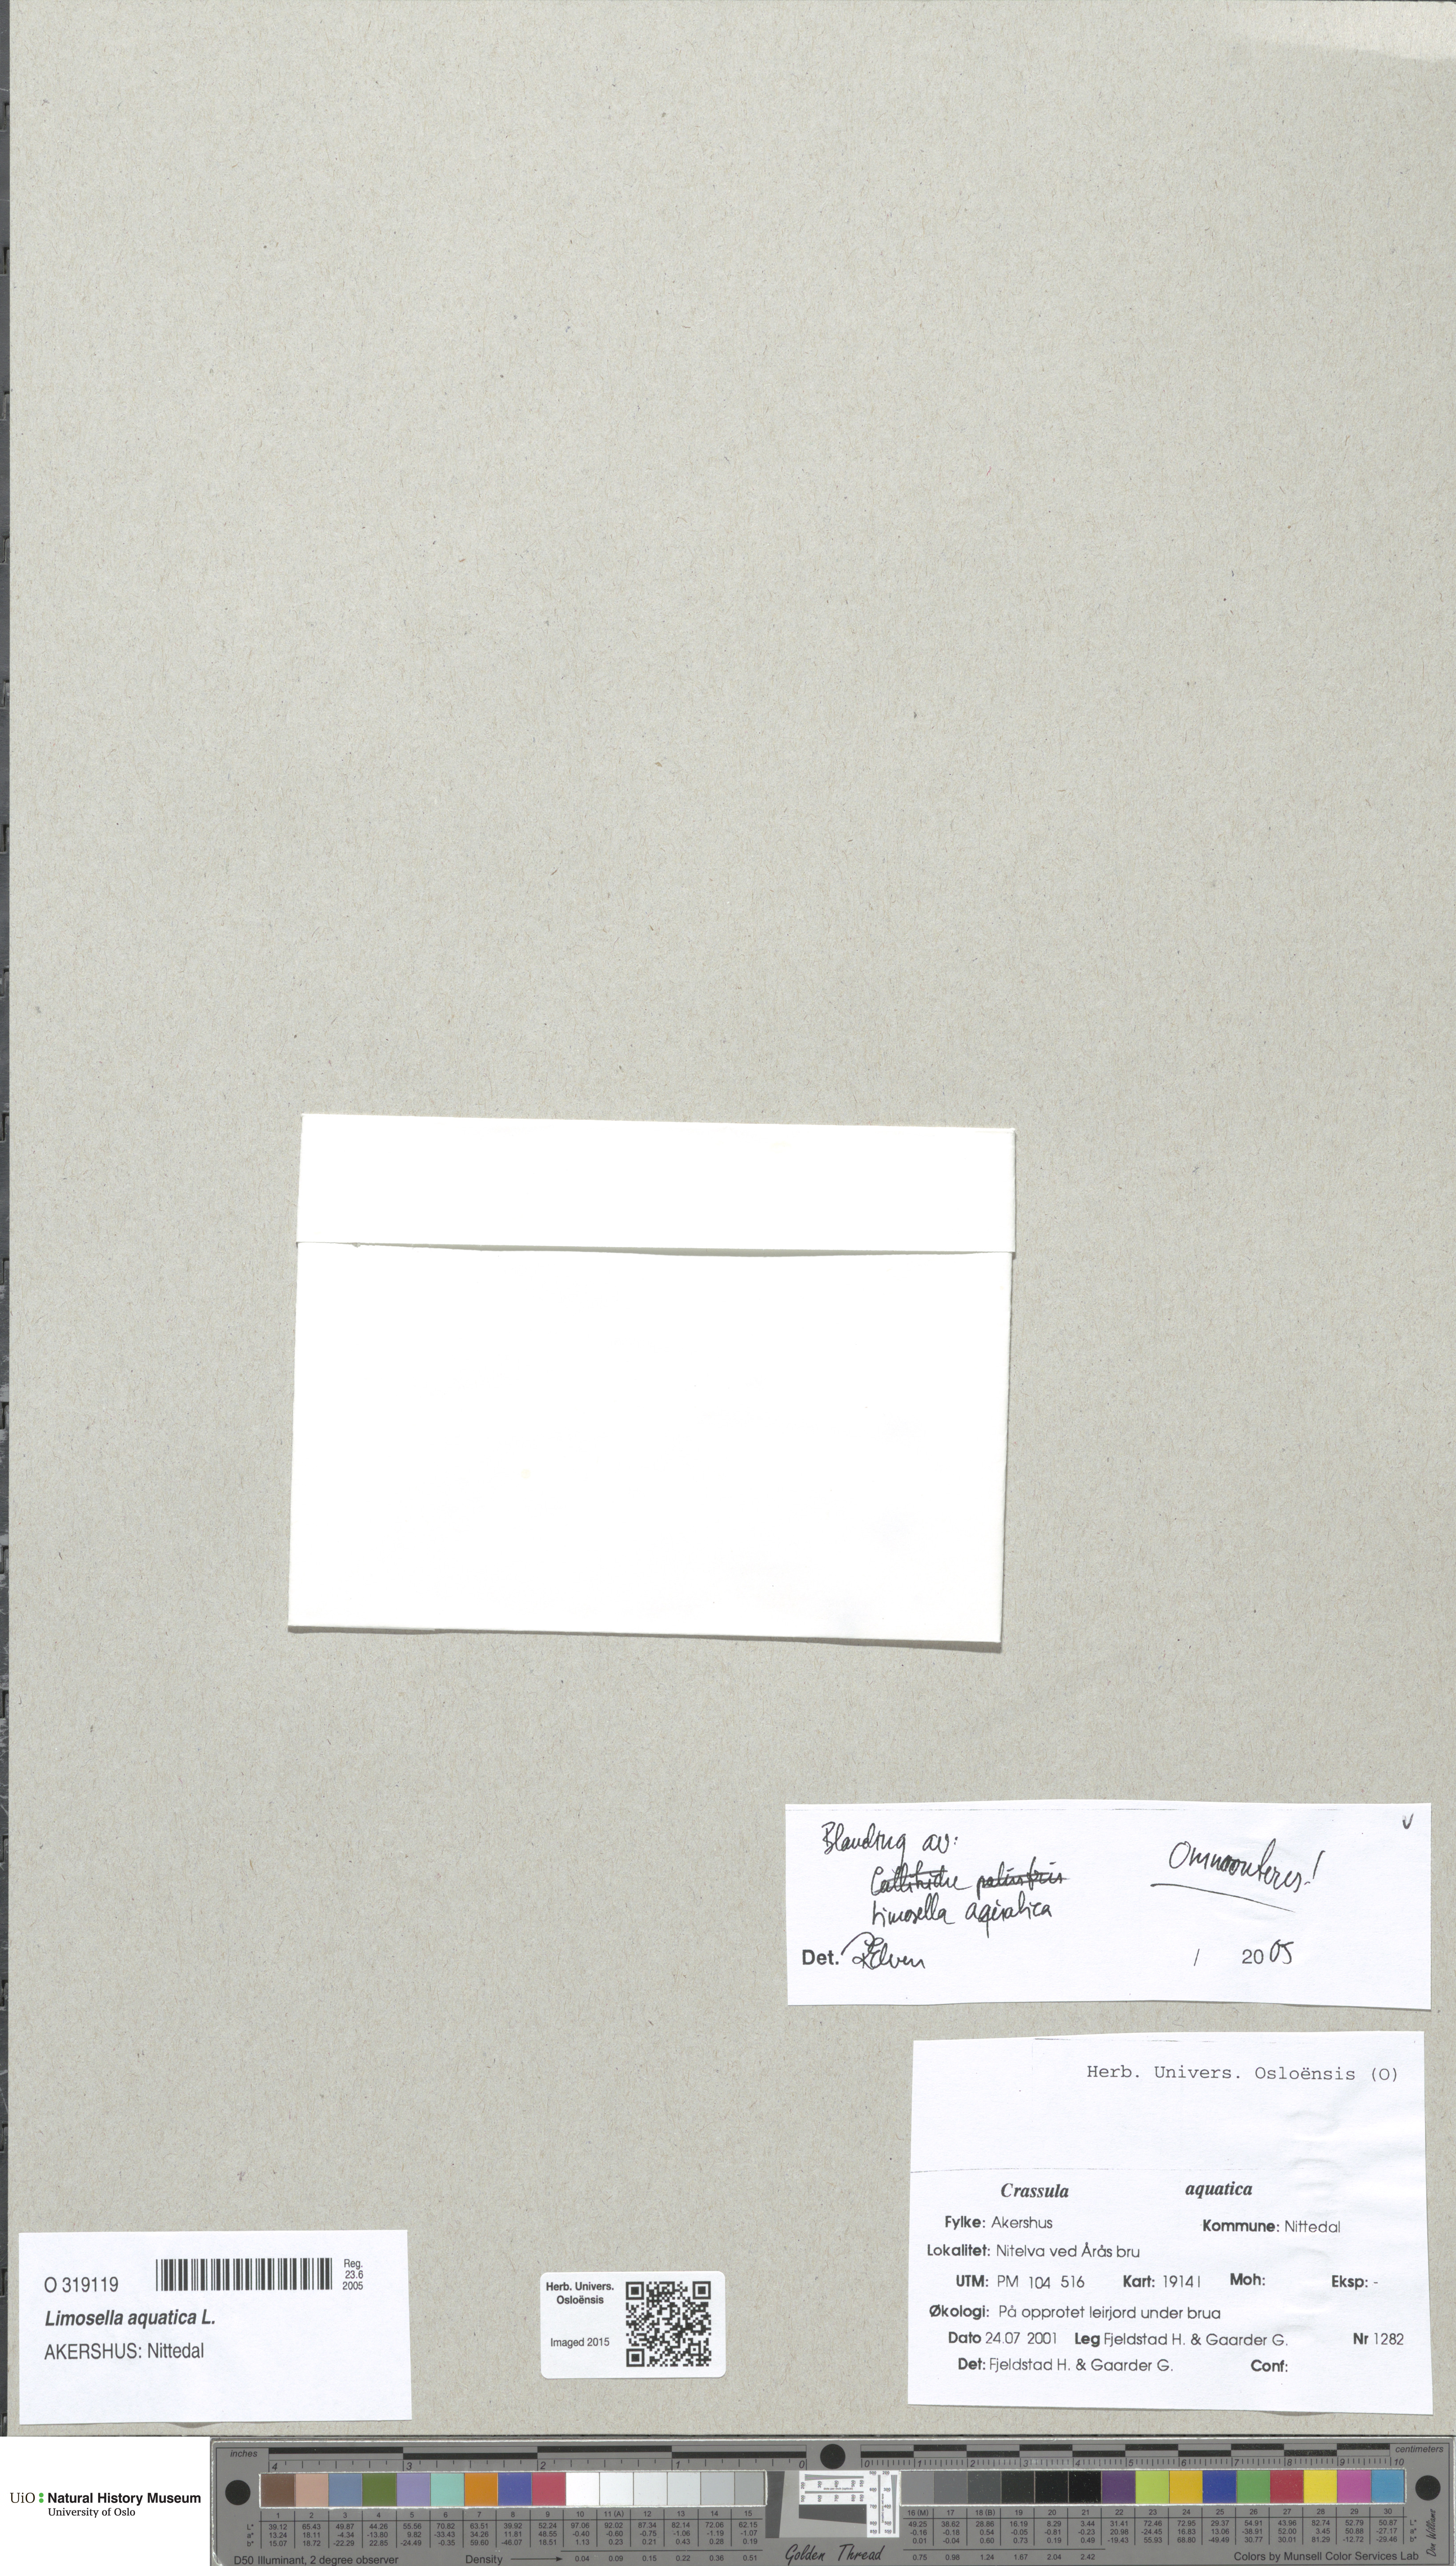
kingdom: Plantae
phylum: Tracheophyta
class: Magnoliopsida
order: Lamiales
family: Scrophulariaceae
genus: Limosella
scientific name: Limosella aquatica
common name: Mudwort
